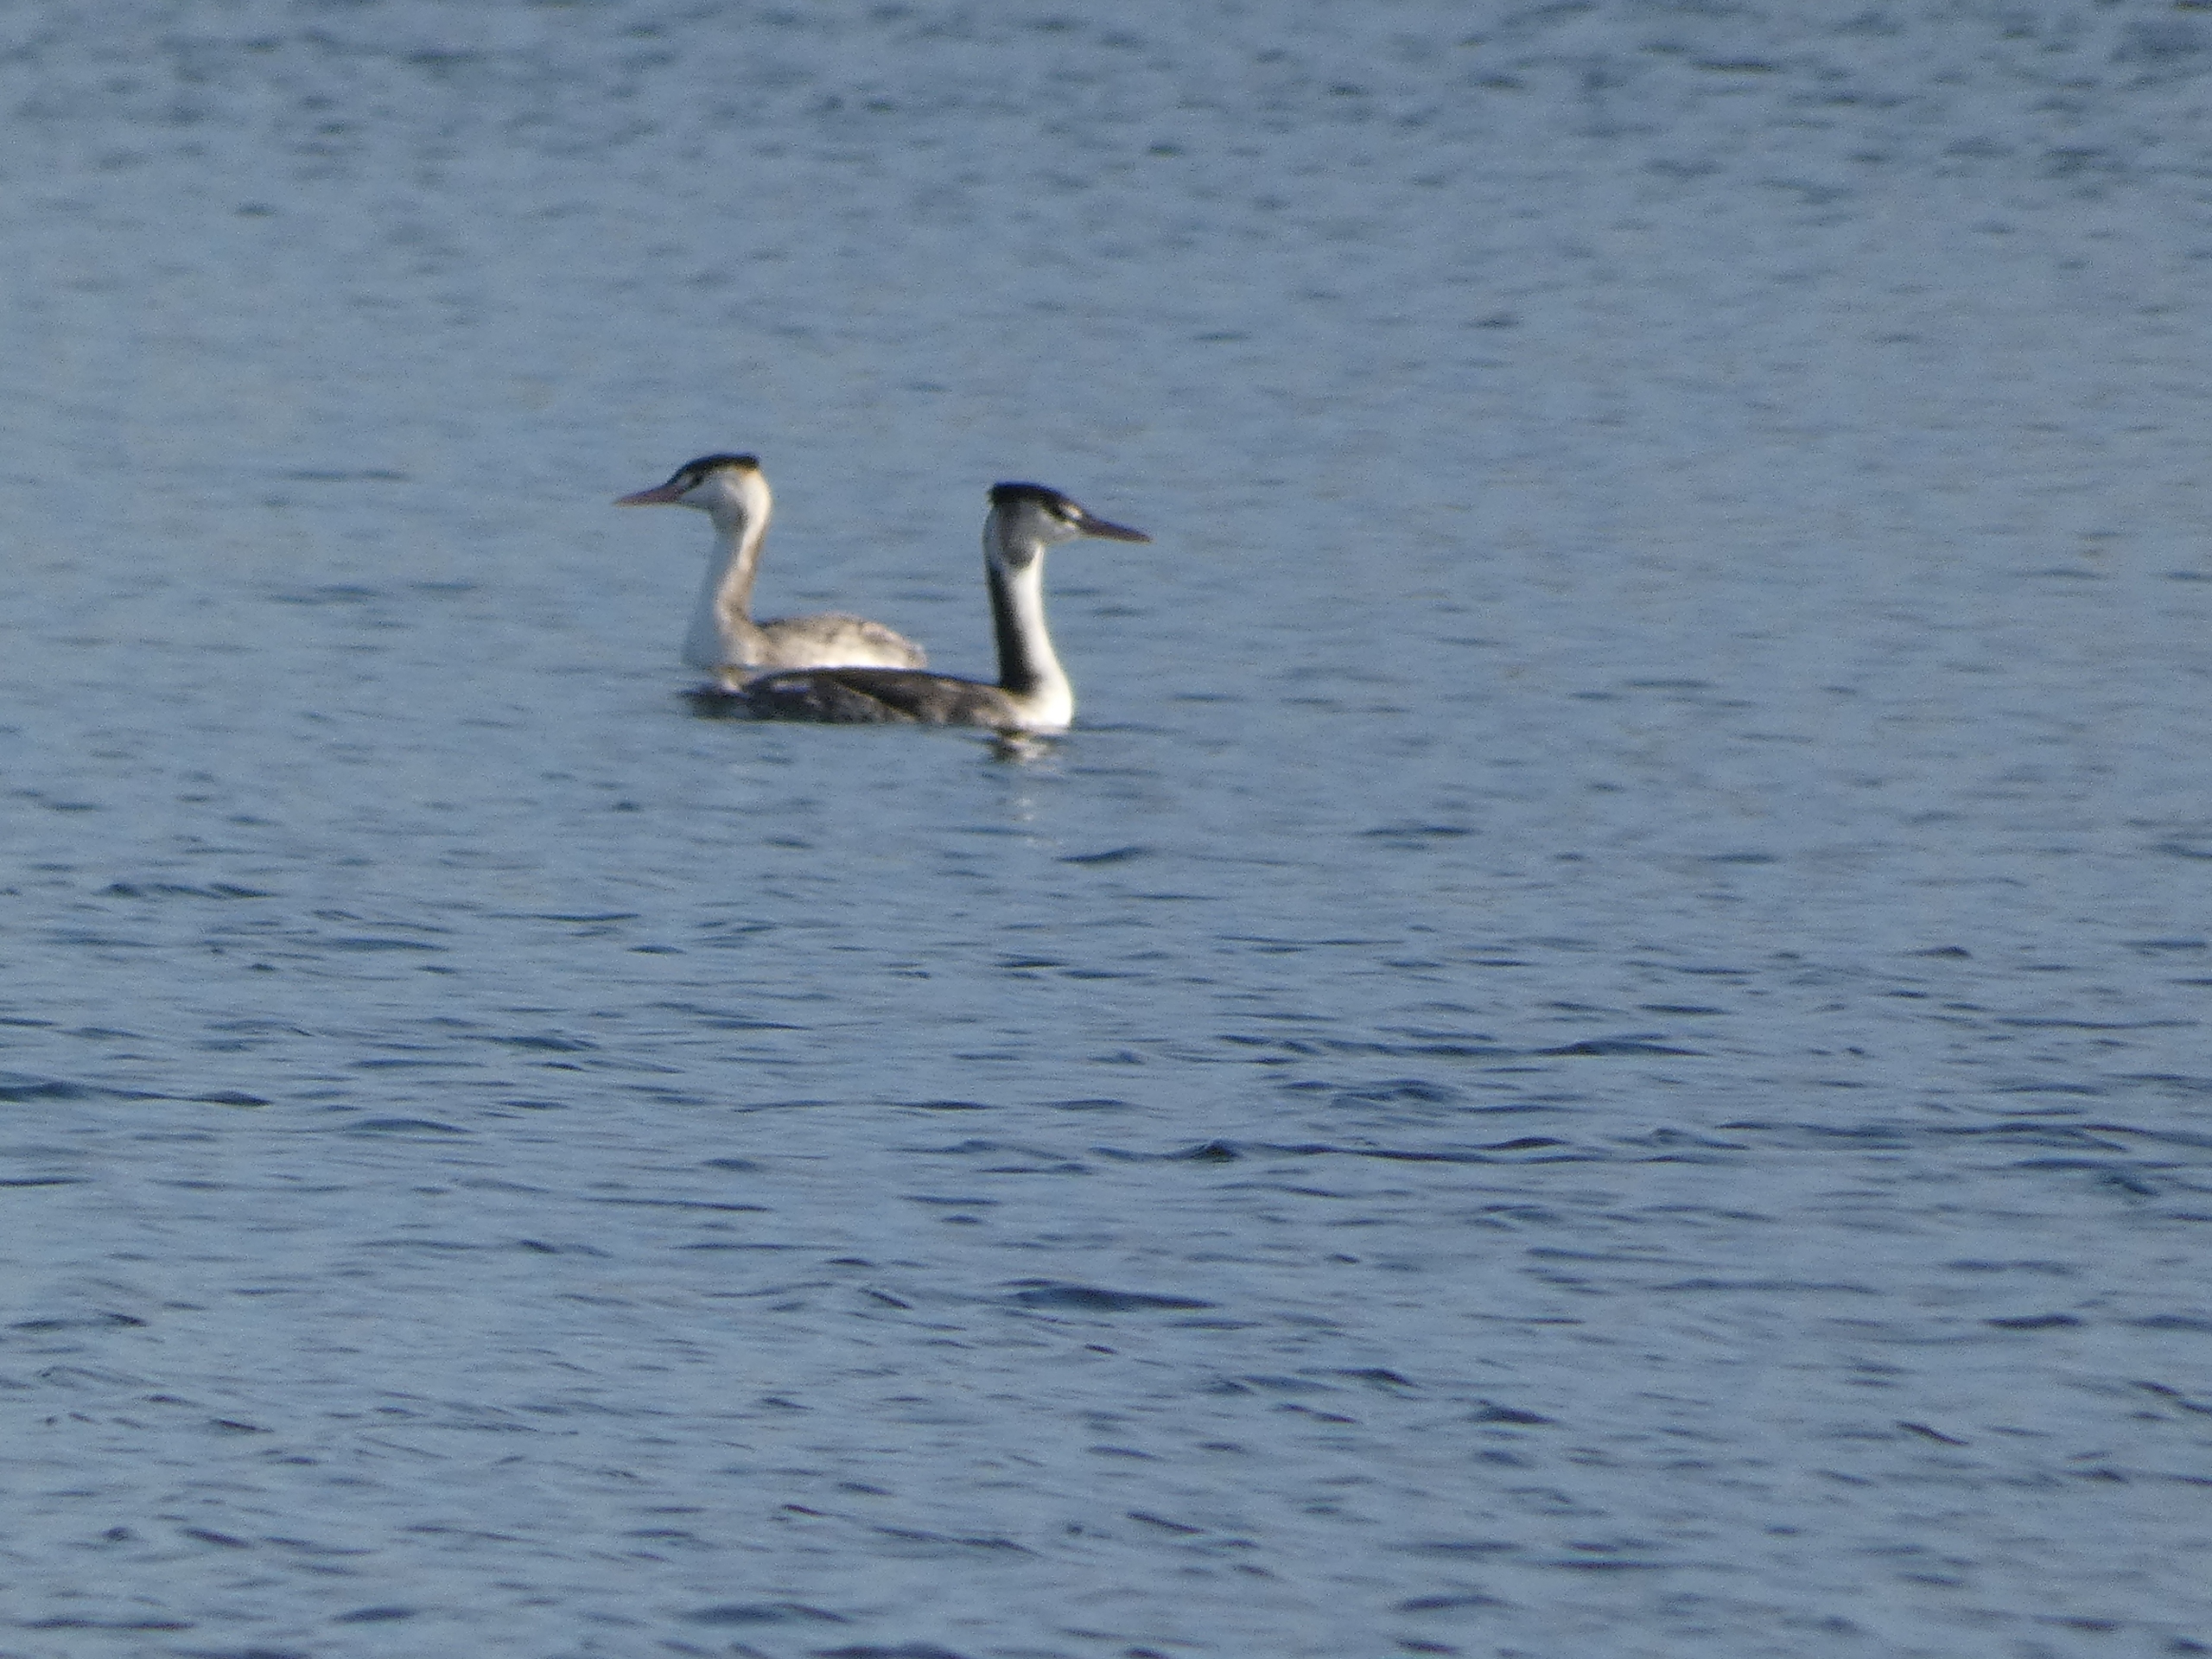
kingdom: Animalia
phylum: Chordata
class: Aves
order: Podicipediformes
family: Podicipedidae
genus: Podiceps
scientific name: Podiceps cristatus
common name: Toppet lappedykker
